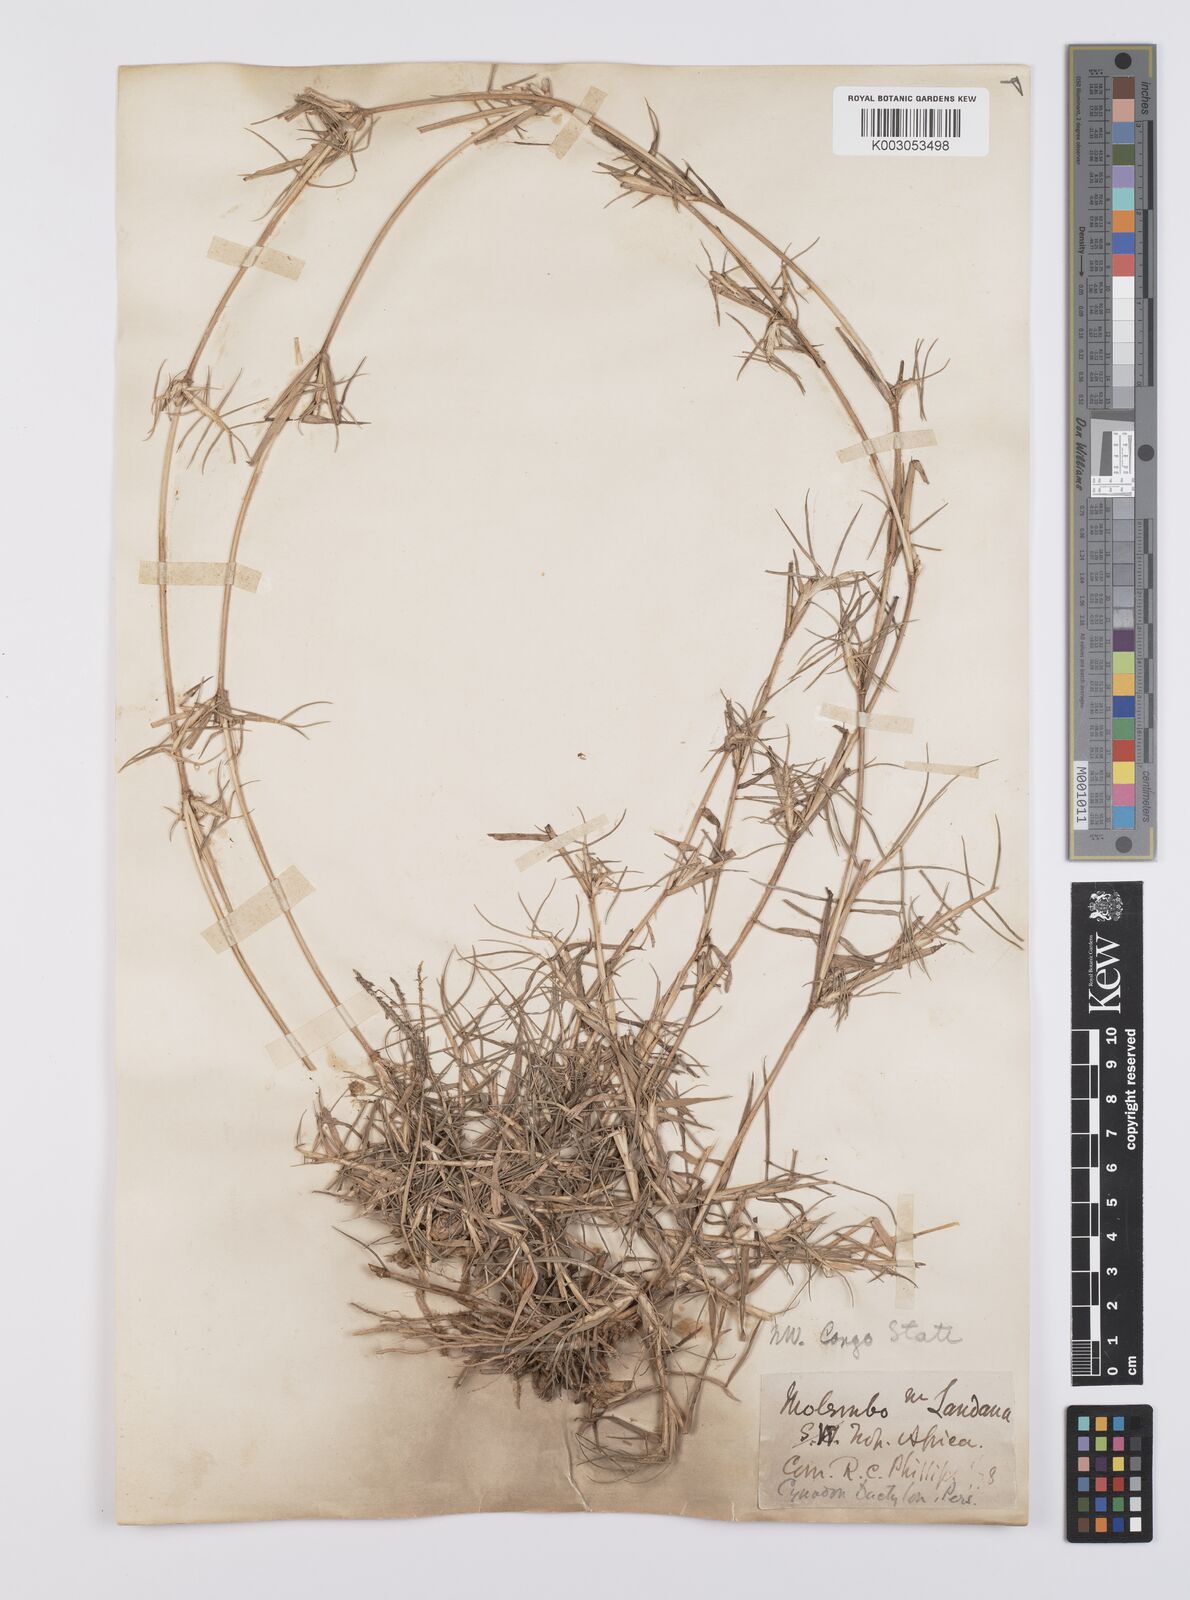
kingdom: Plantae
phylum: Tracheophyta
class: Liliopsida
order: Poales
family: Poaceae
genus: Cynodon
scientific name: Cynodon nlemfuensis
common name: African bermudagrass
